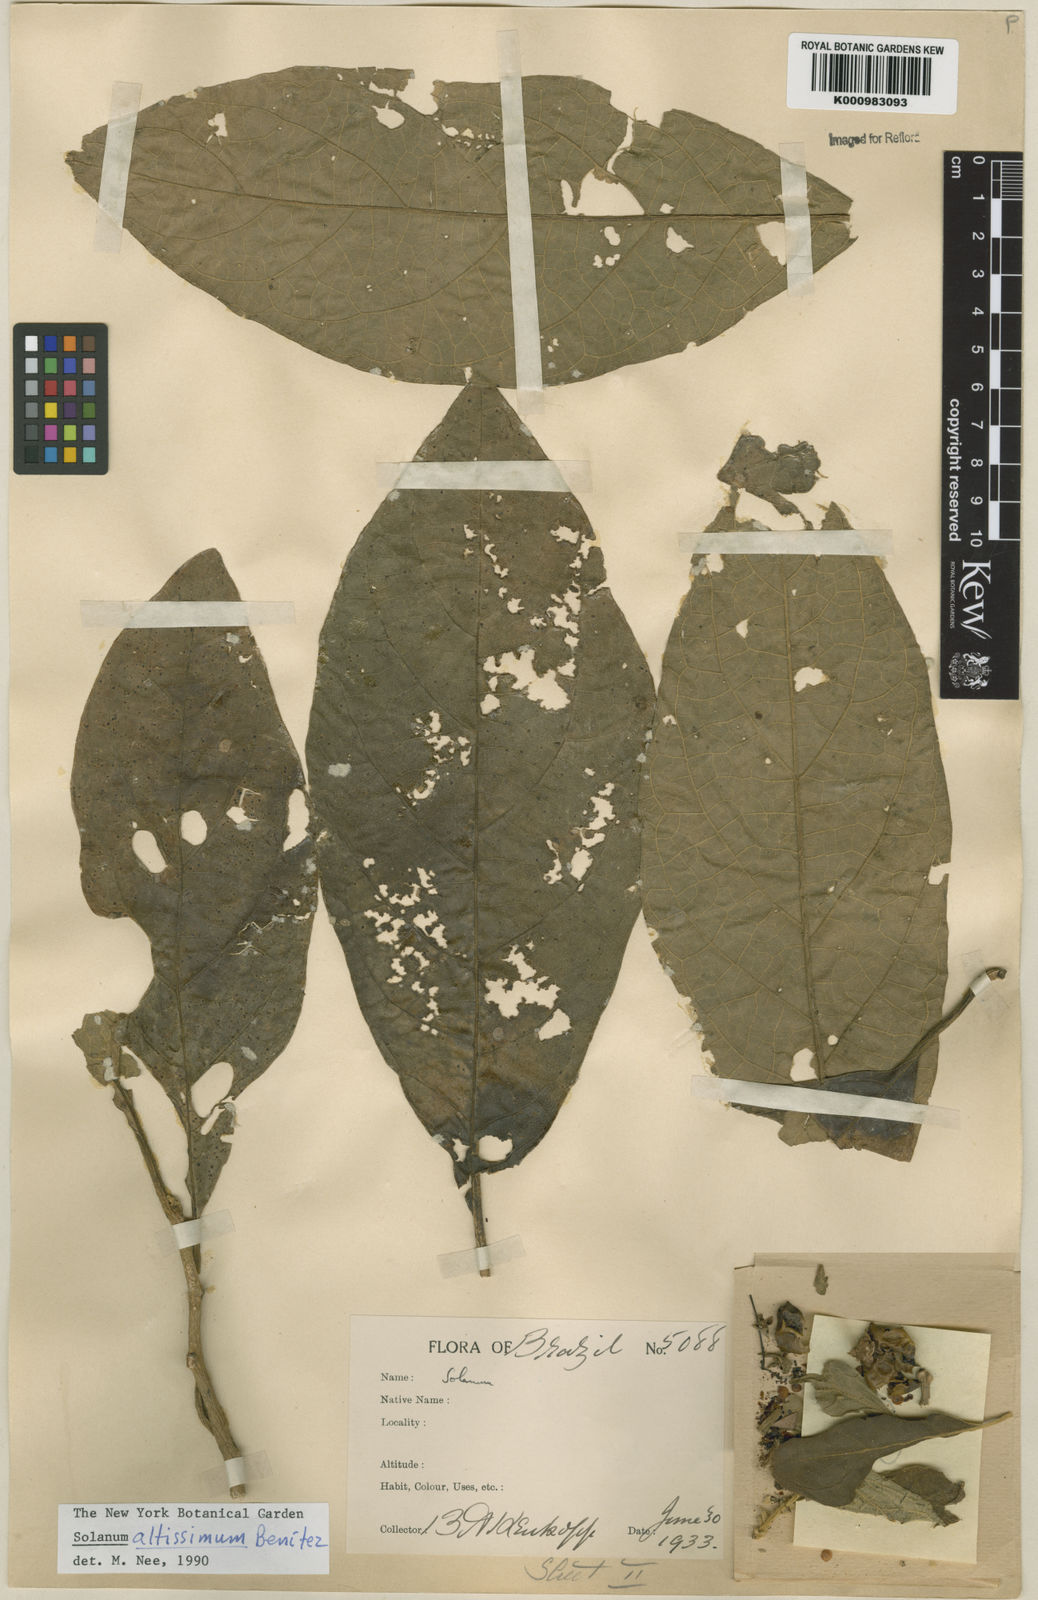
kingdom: Plantae
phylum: Tracheophyta
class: Magnoliopsida
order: Solanales
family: Solanaceae
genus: Solanum
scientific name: Solanum kioniotrichum
